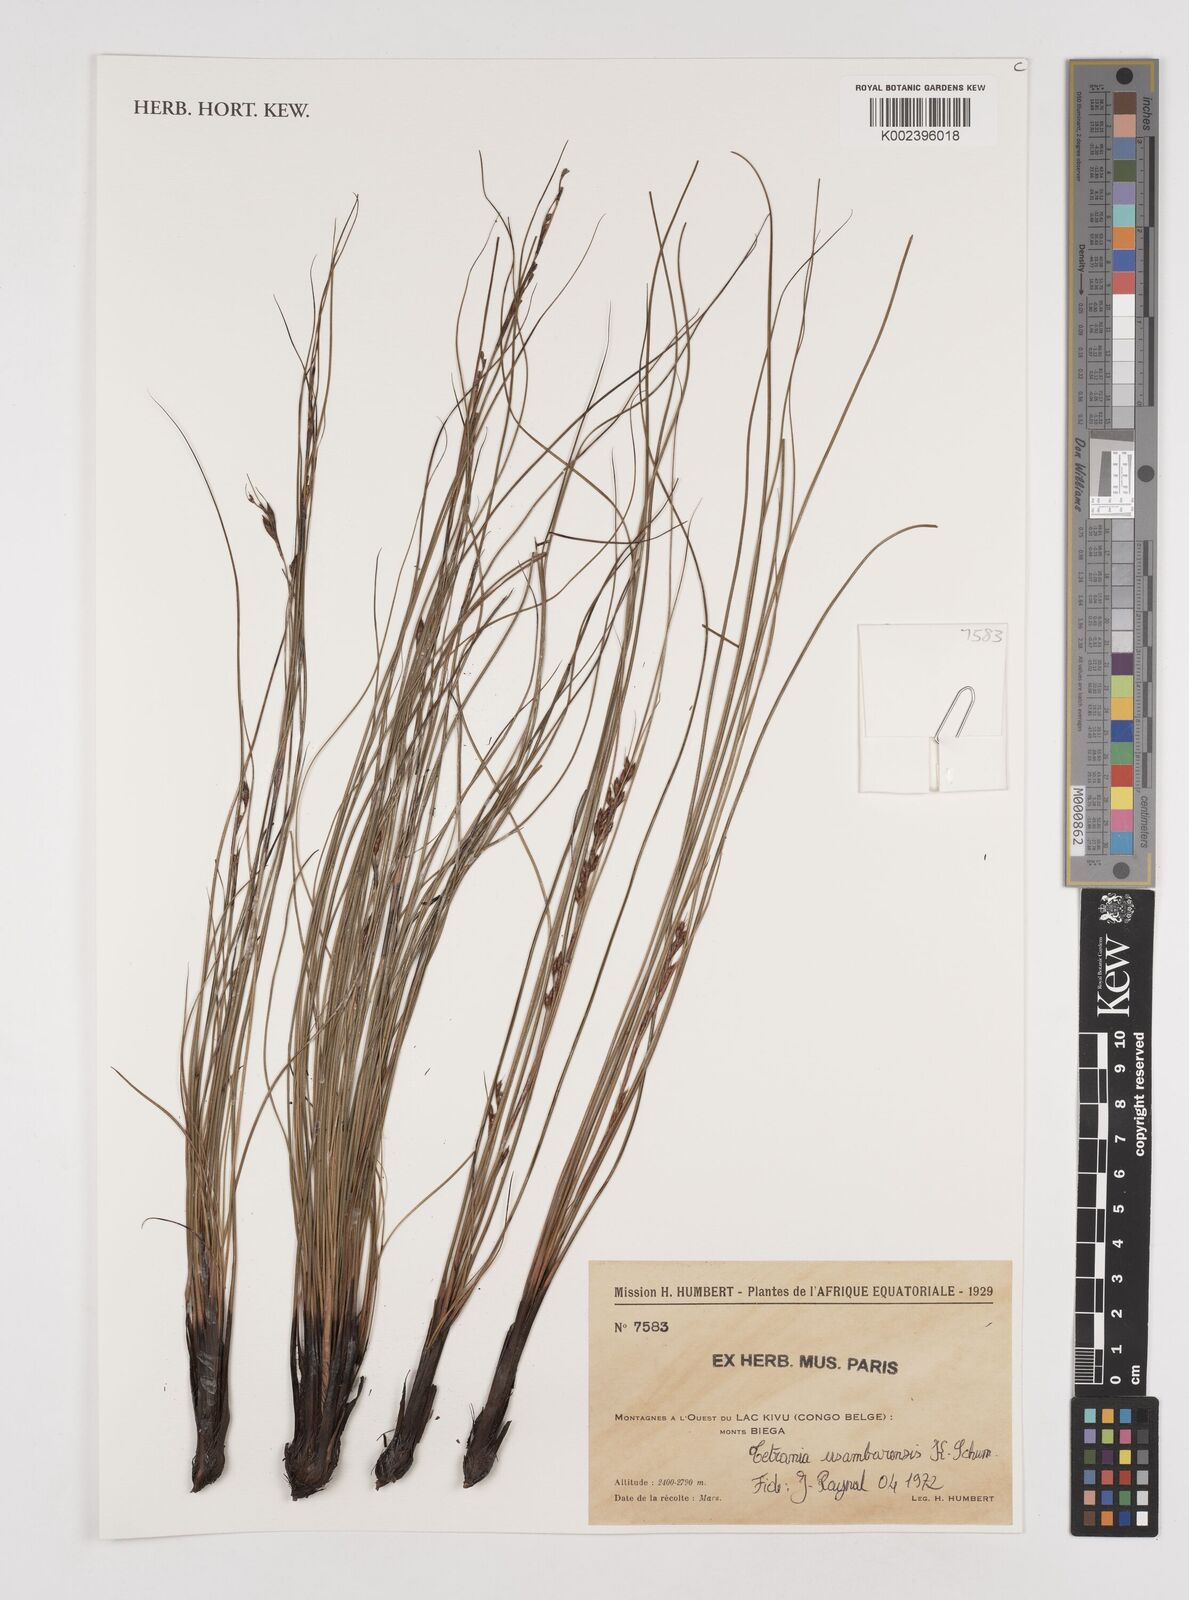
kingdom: Plantae
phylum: Tracheophyta
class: Liliopsida
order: Poales
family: Cyperaceae
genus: Tetraria
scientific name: Tetraria usambarensis
